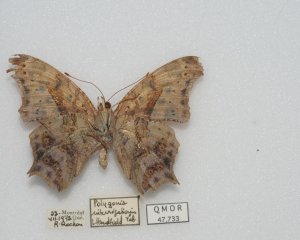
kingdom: Animalia
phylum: Arthropoda
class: Insecta
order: Lepidoptera
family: Nymphalidae
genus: Polygonia
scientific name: Polygonia interrogationis
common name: Question Mark
